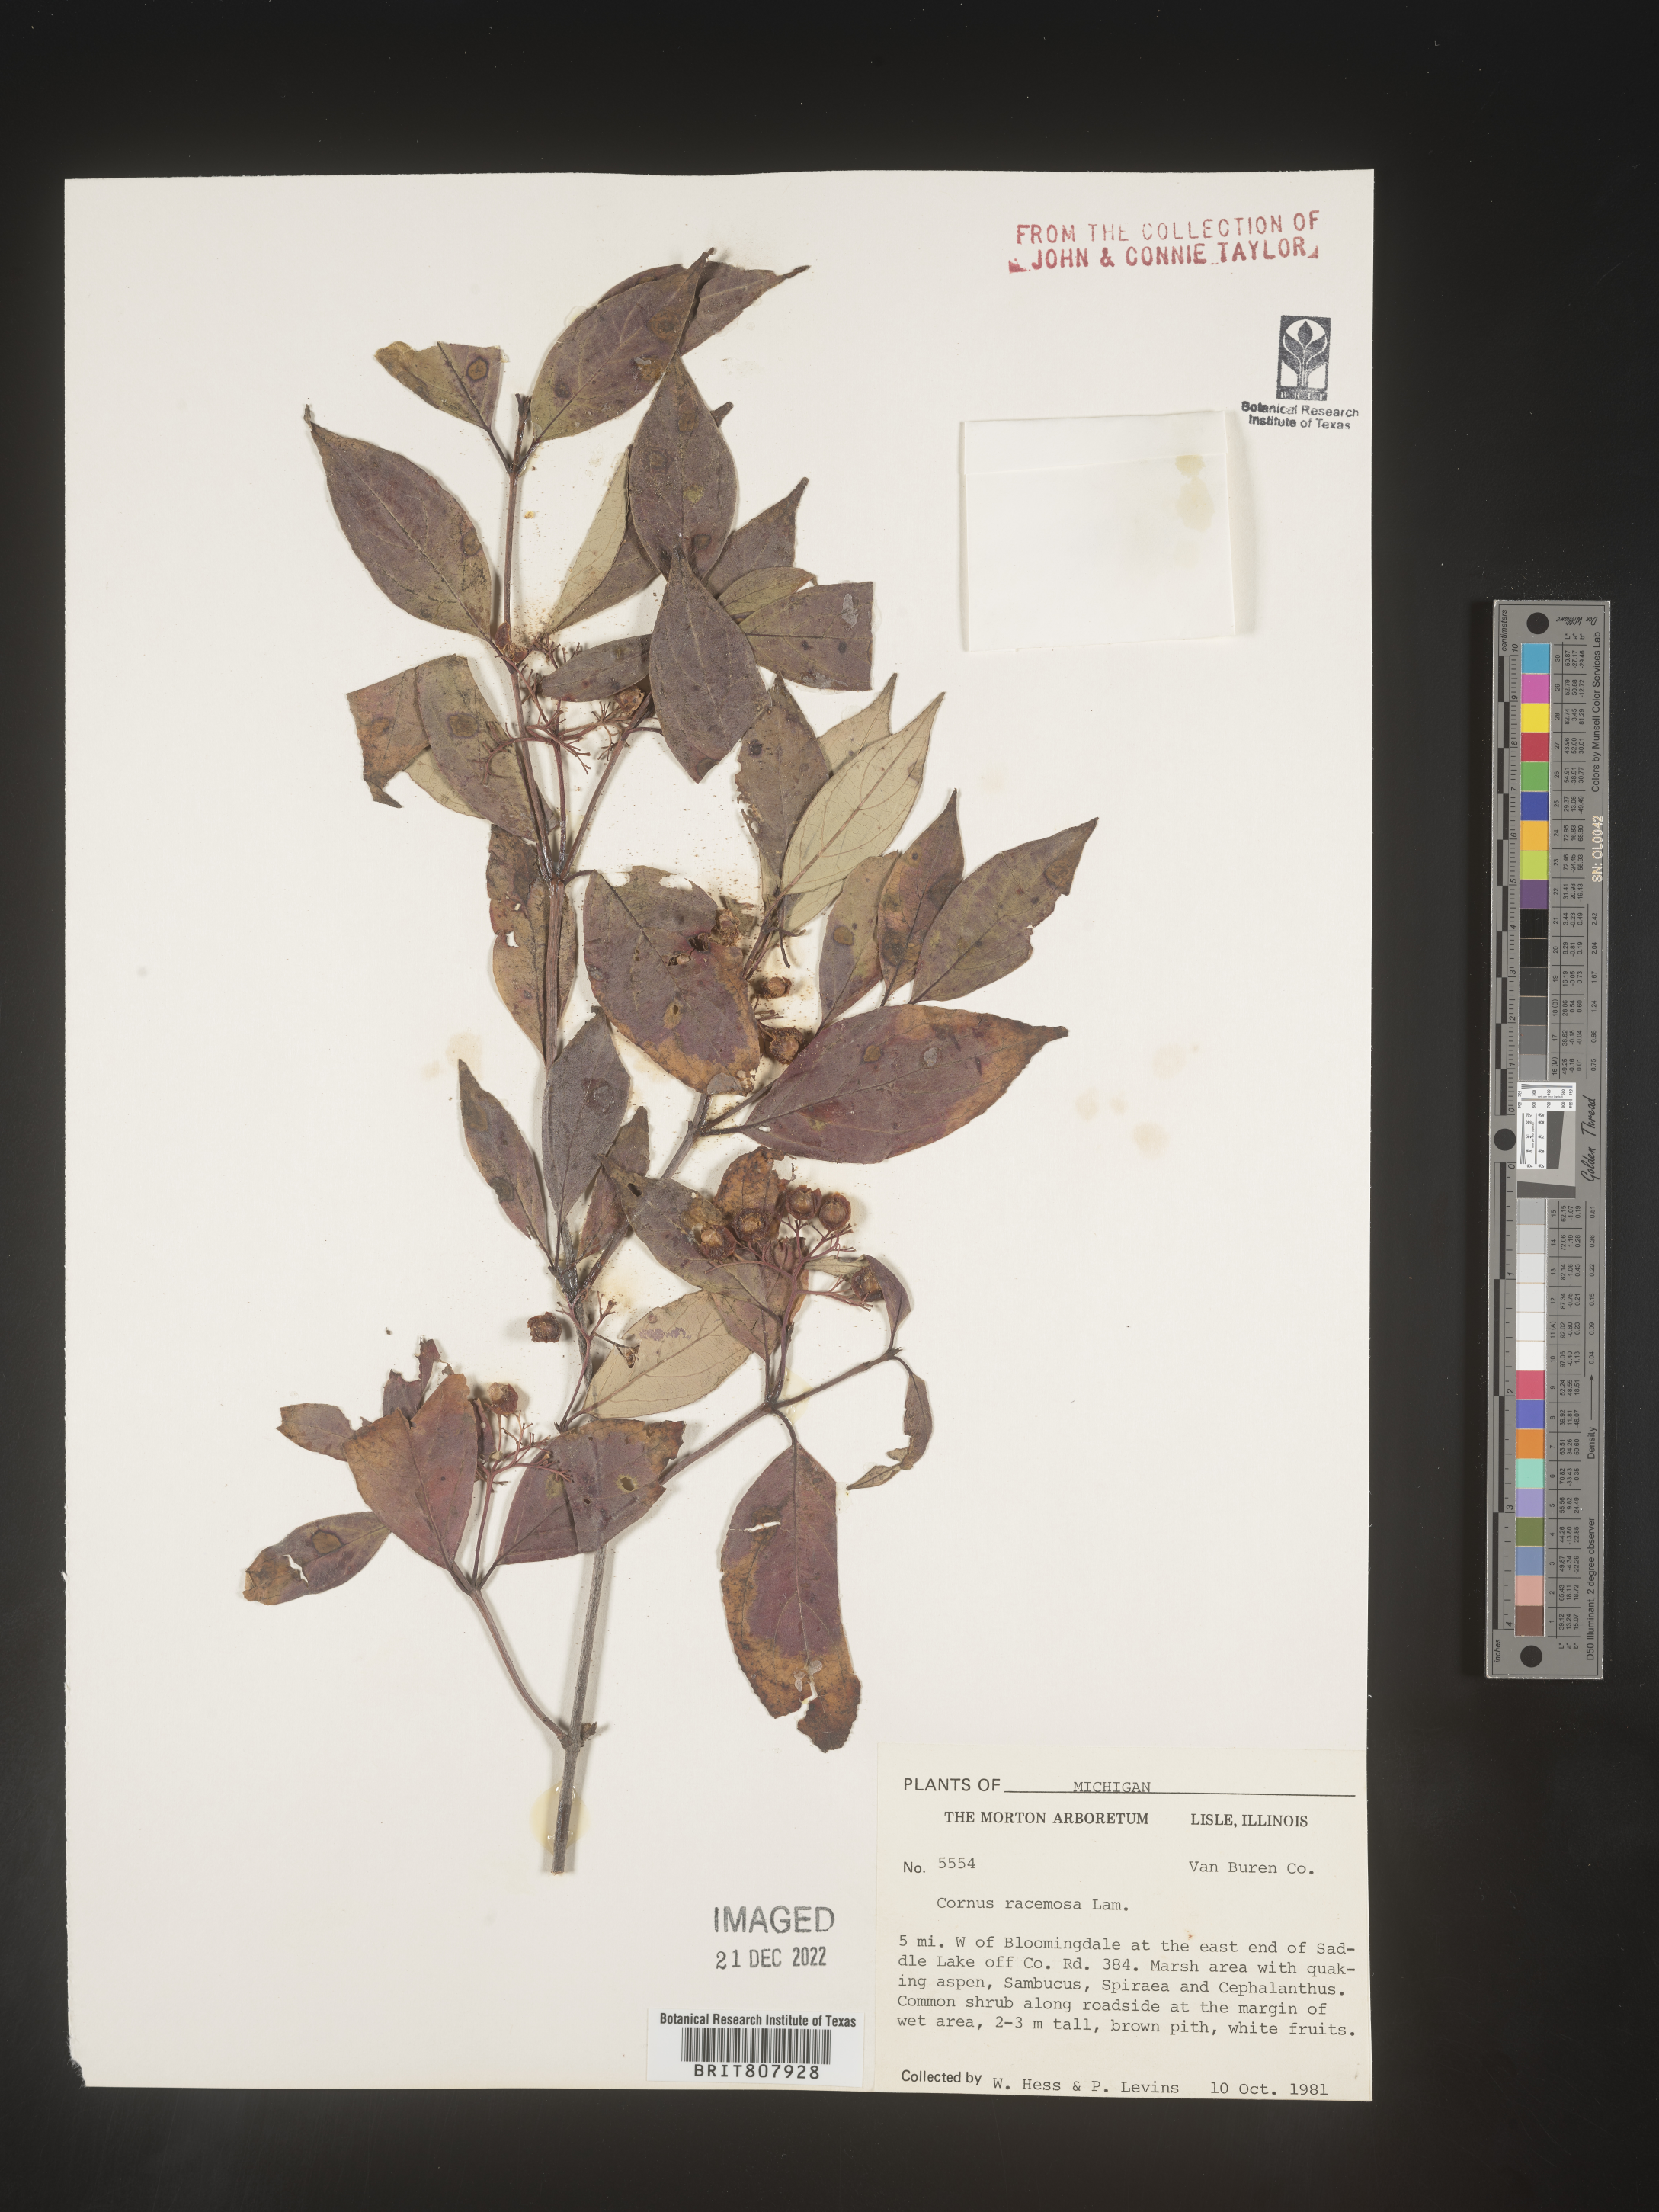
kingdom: Plantae
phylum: Tracheophyta
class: Magnoliopsida
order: Cornales
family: Cornaceae
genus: Cornus
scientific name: Cornus racemosa
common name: Panicled dogwood
